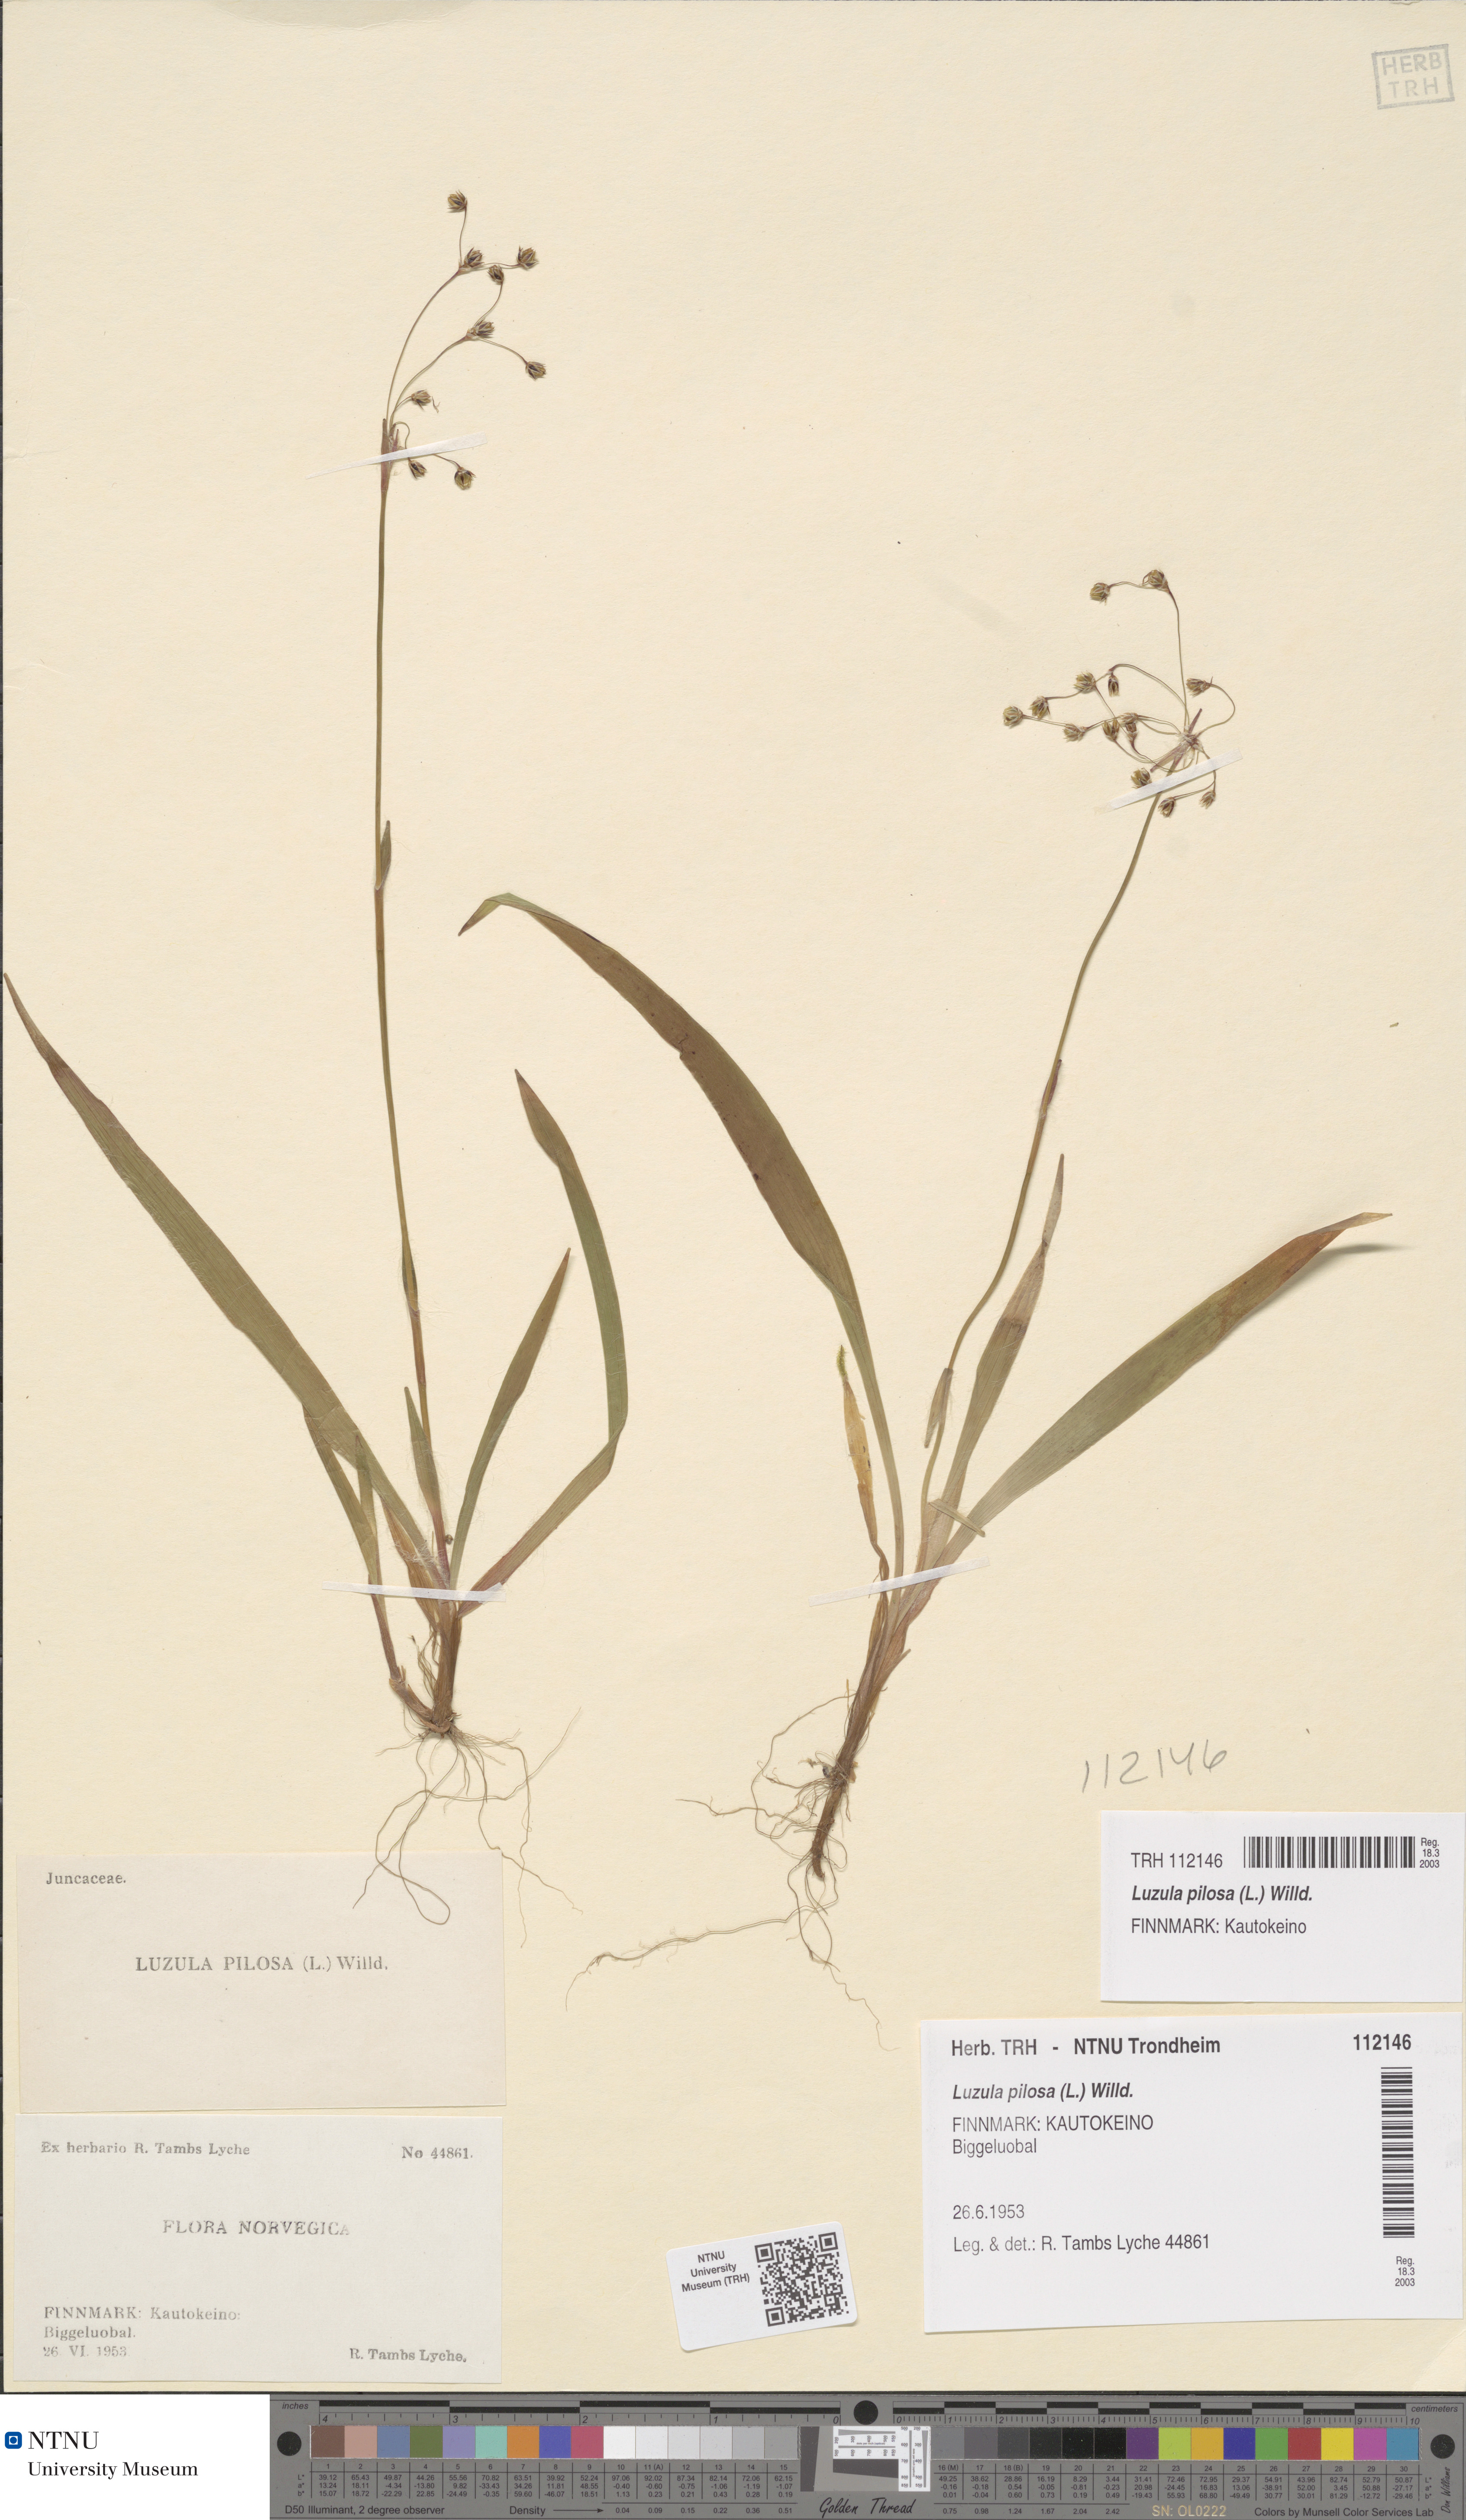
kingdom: Plantae
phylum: Tracheophyta
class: Liliopsida
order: Poales
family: Juncaceae
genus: Luzula
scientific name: Luzula pilosa
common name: Hairy wood-rush
